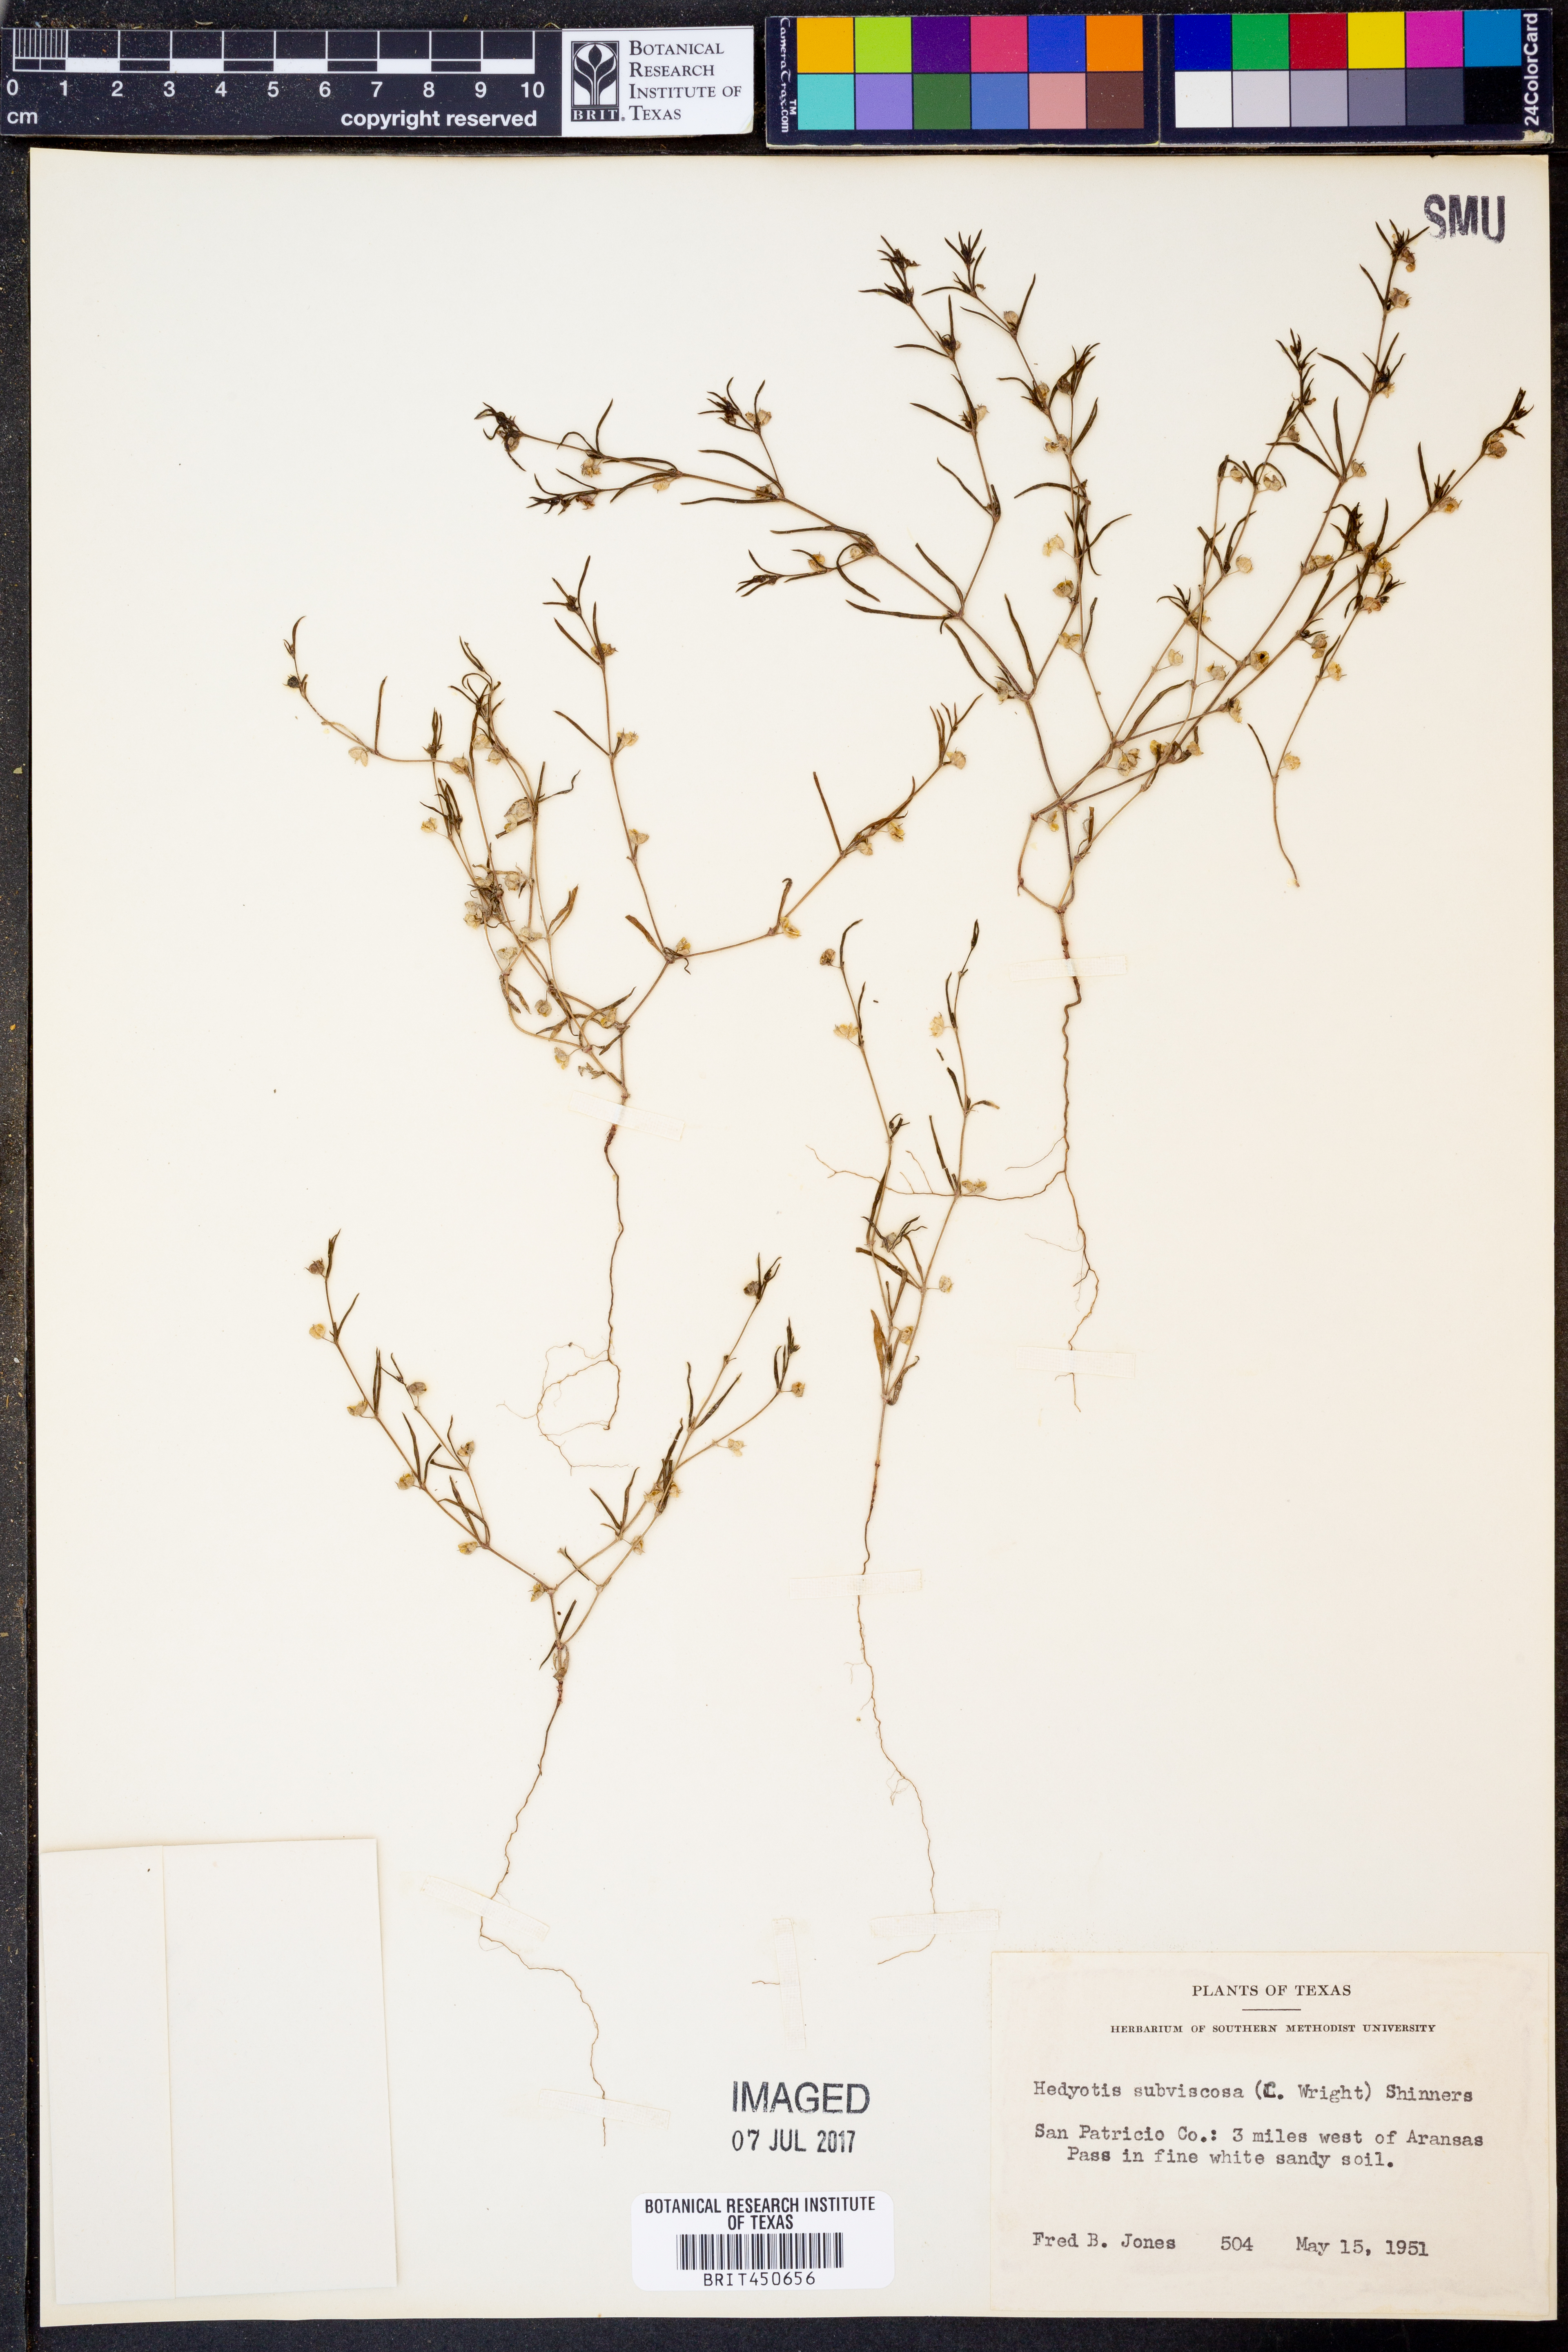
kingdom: Plantae
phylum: Tracheophyta
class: Magnoliopsida
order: Gentianales
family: Rubiaceae
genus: Houstonia
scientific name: Houstonia subviscosa
